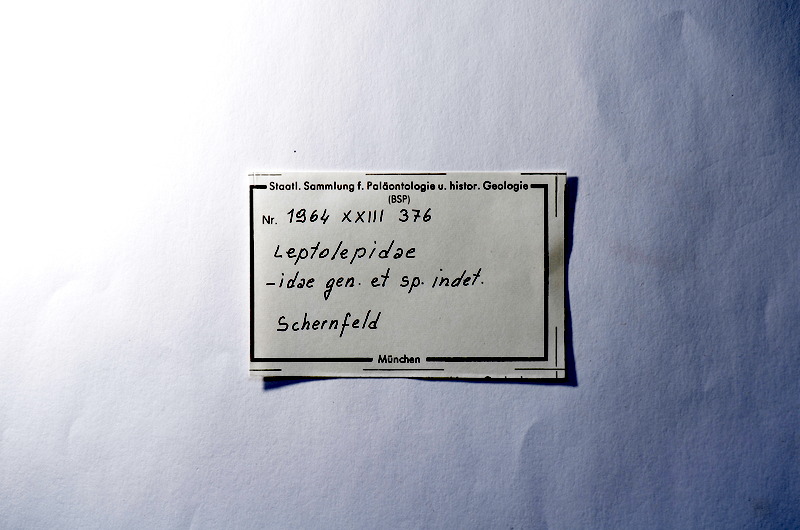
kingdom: Animalia
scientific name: Animalia
